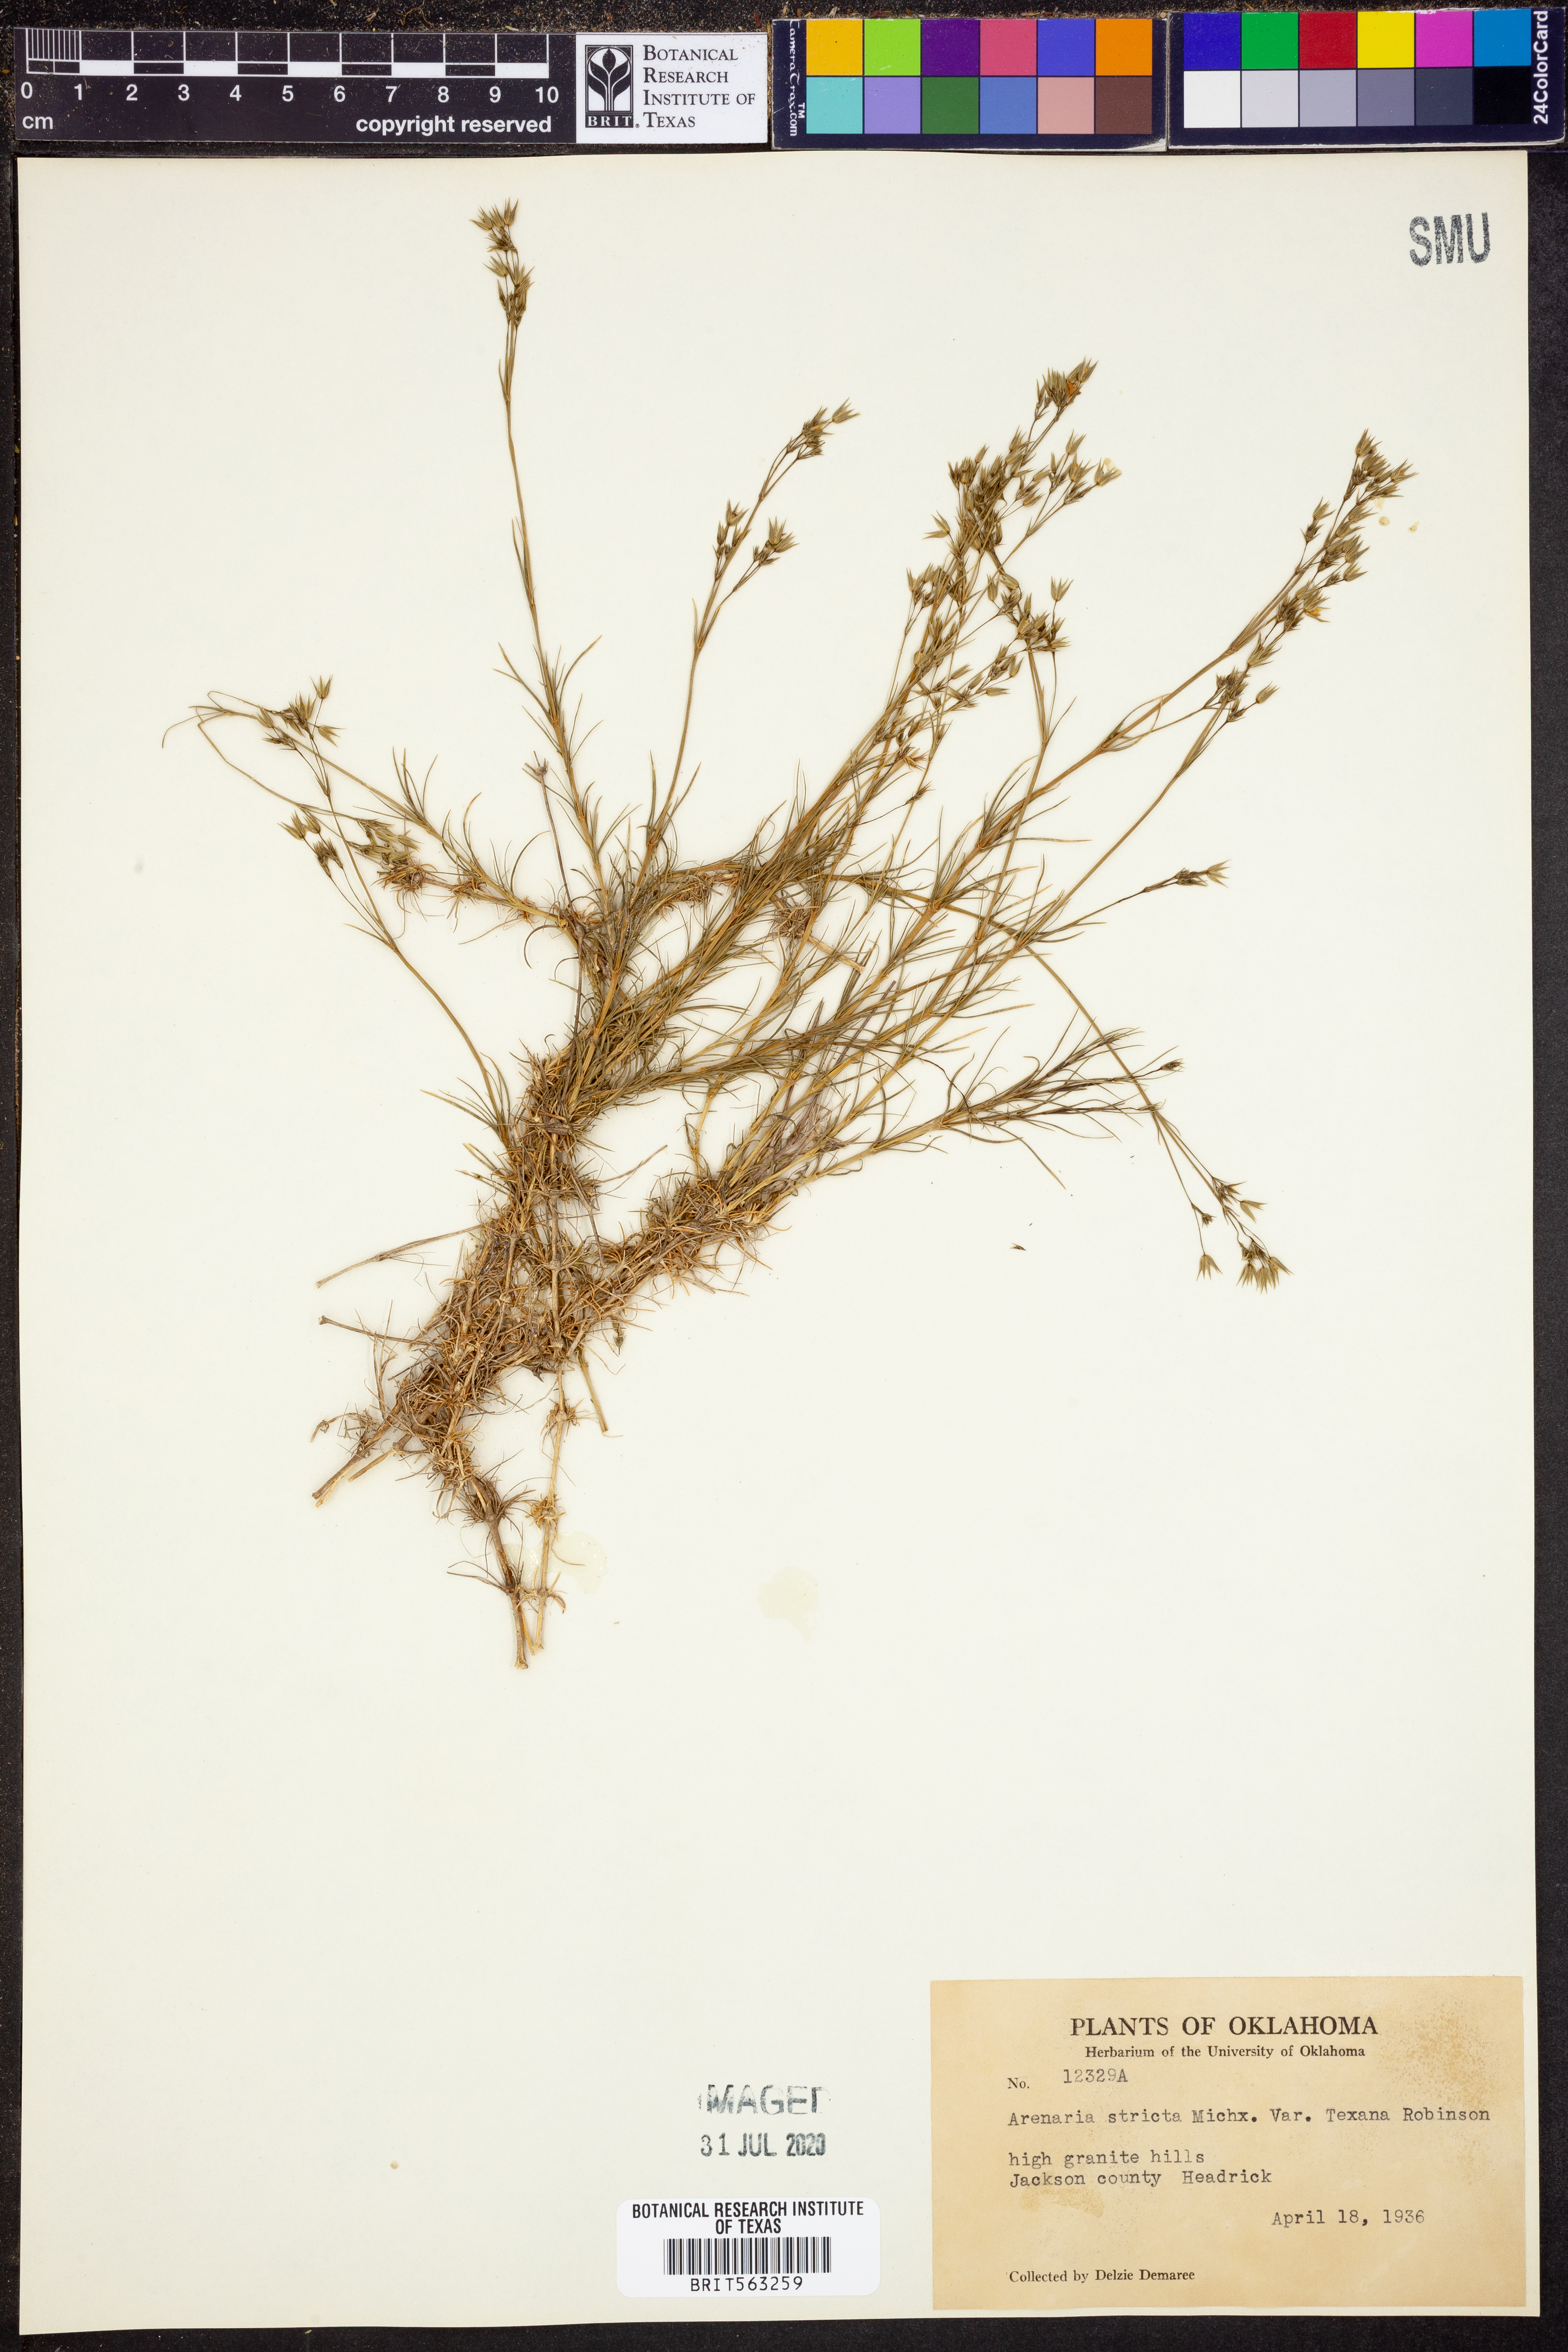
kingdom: Plantae
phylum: Tracheophyta
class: Magnoliopsida
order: Caryophyllales
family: Caryophyllaceae
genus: Sabulina
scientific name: Sabulina michauxii
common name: Michaux's stitchwort
